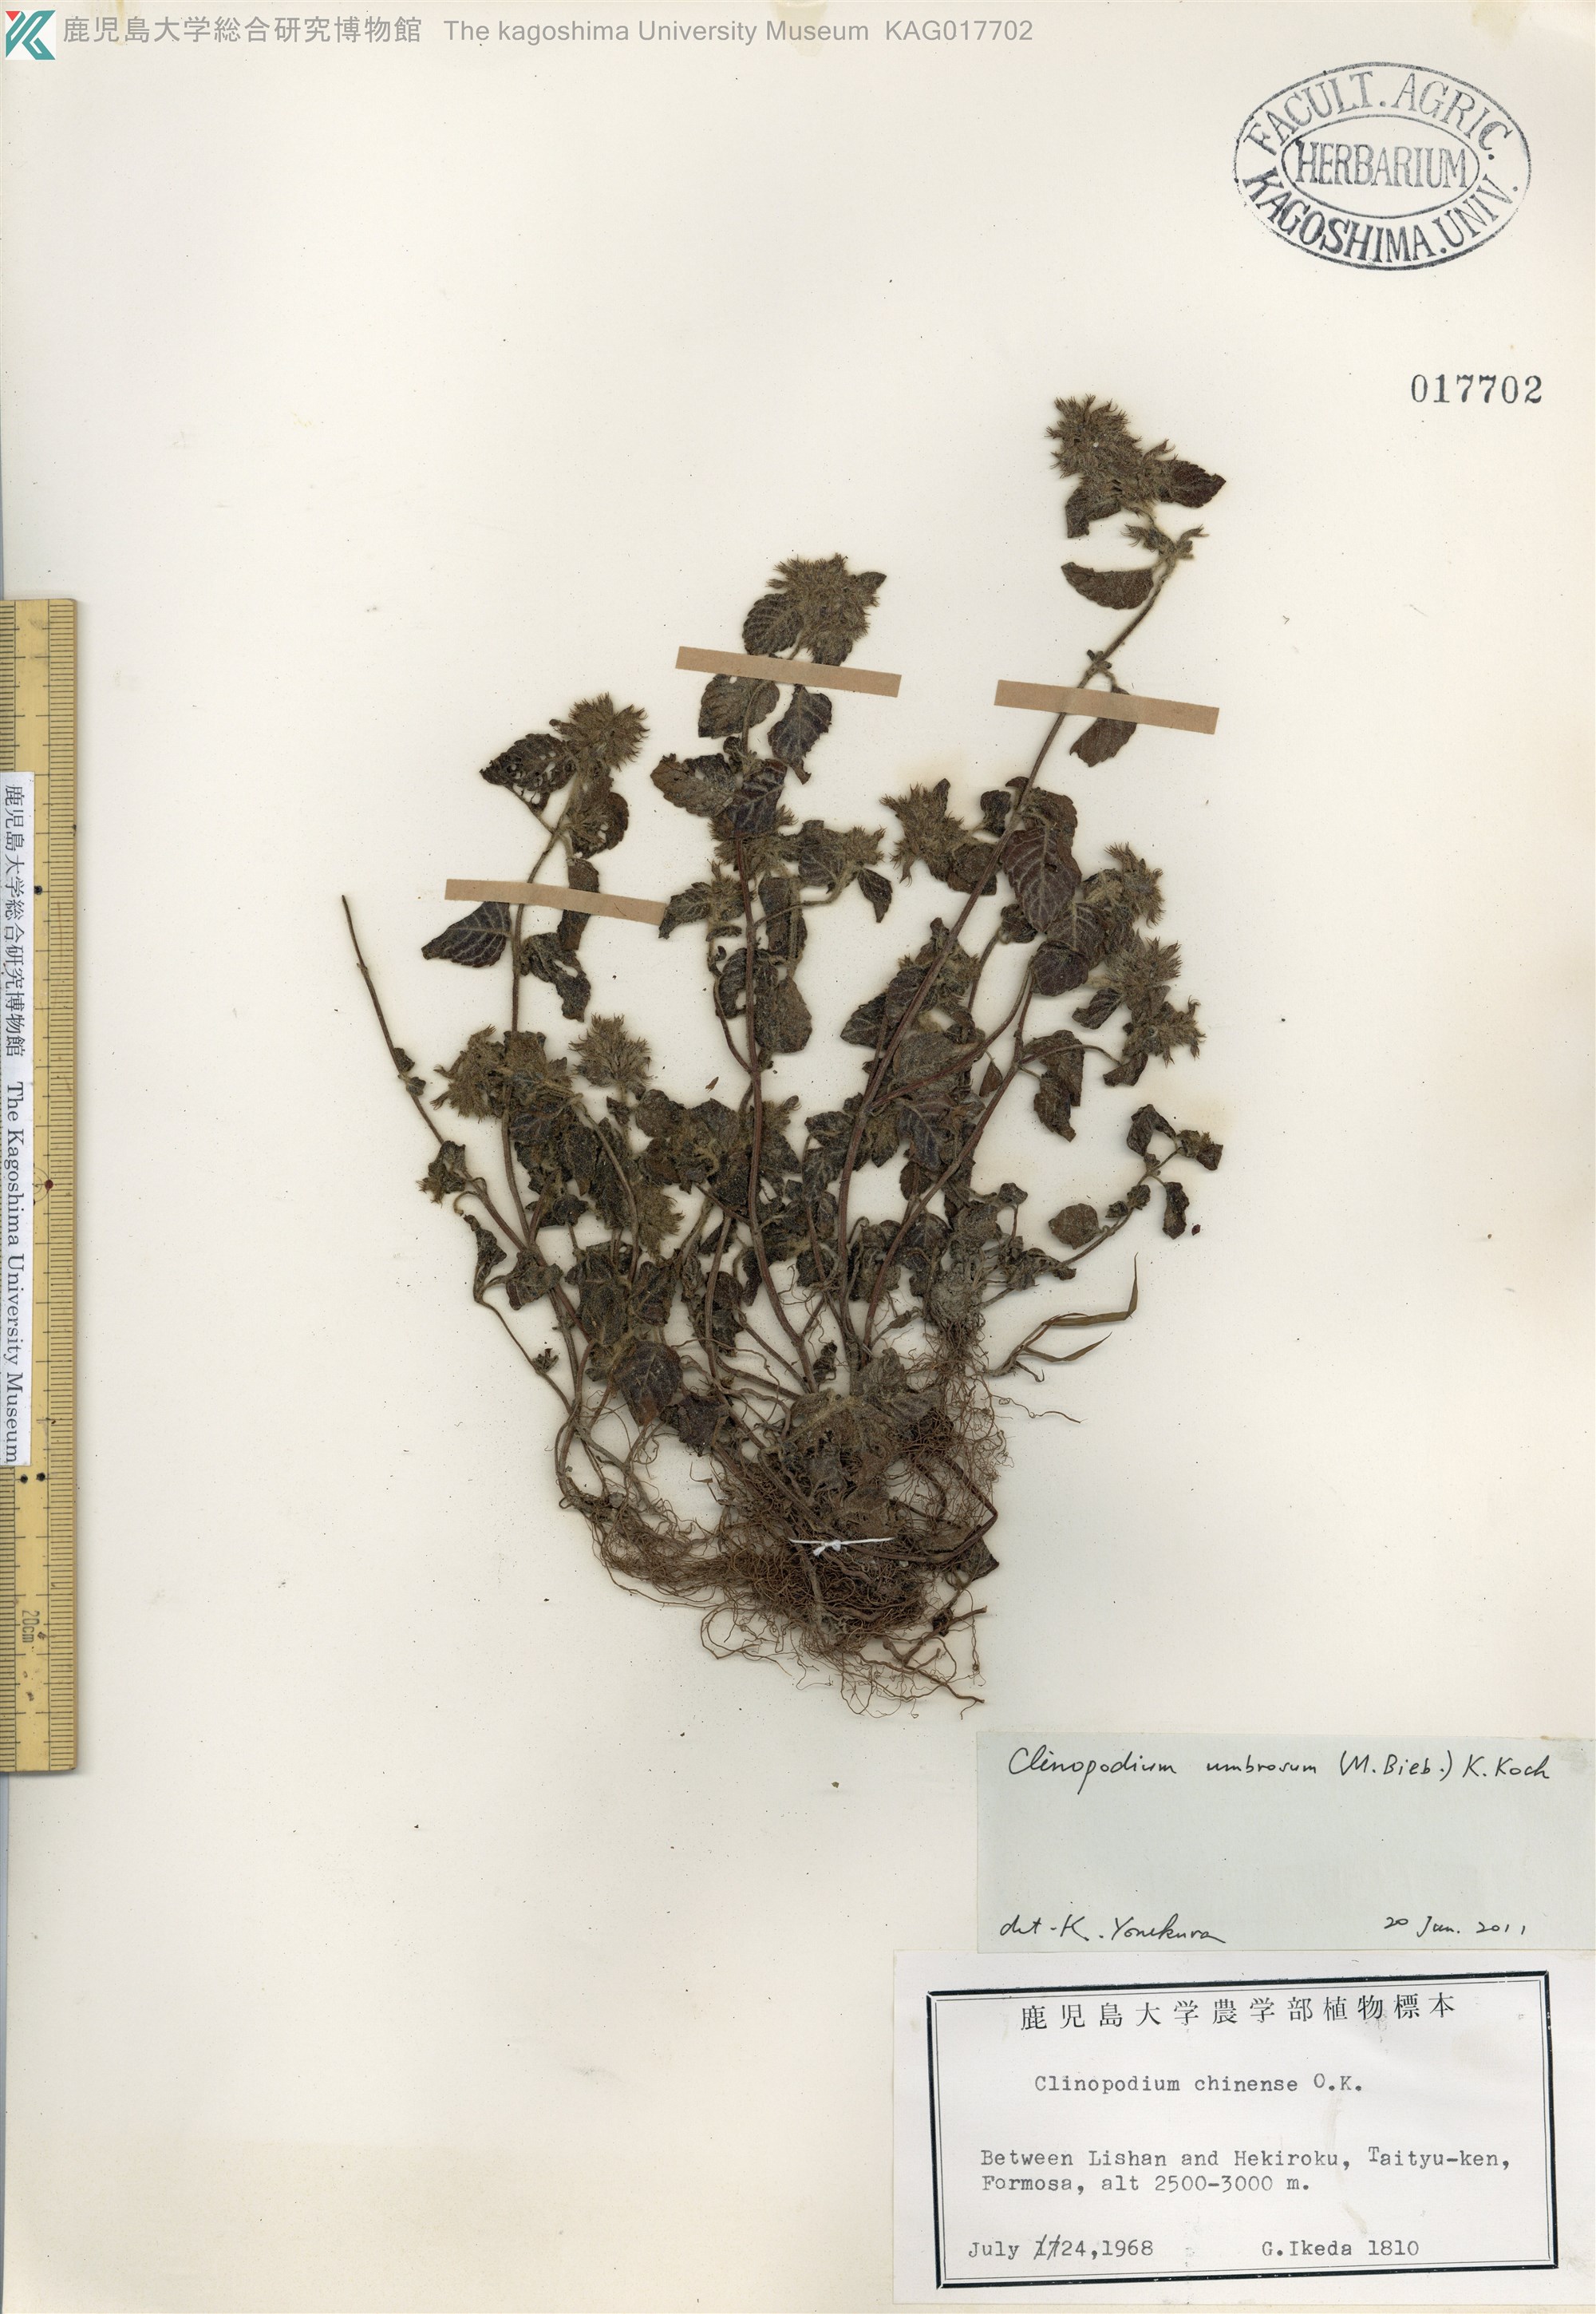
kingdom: Plantae
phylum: Tracheophyta
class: Magnoliopsida
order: Lamiales
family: Lamiaceae
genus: Clinopodium
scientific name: Clinopodium umbrosum
